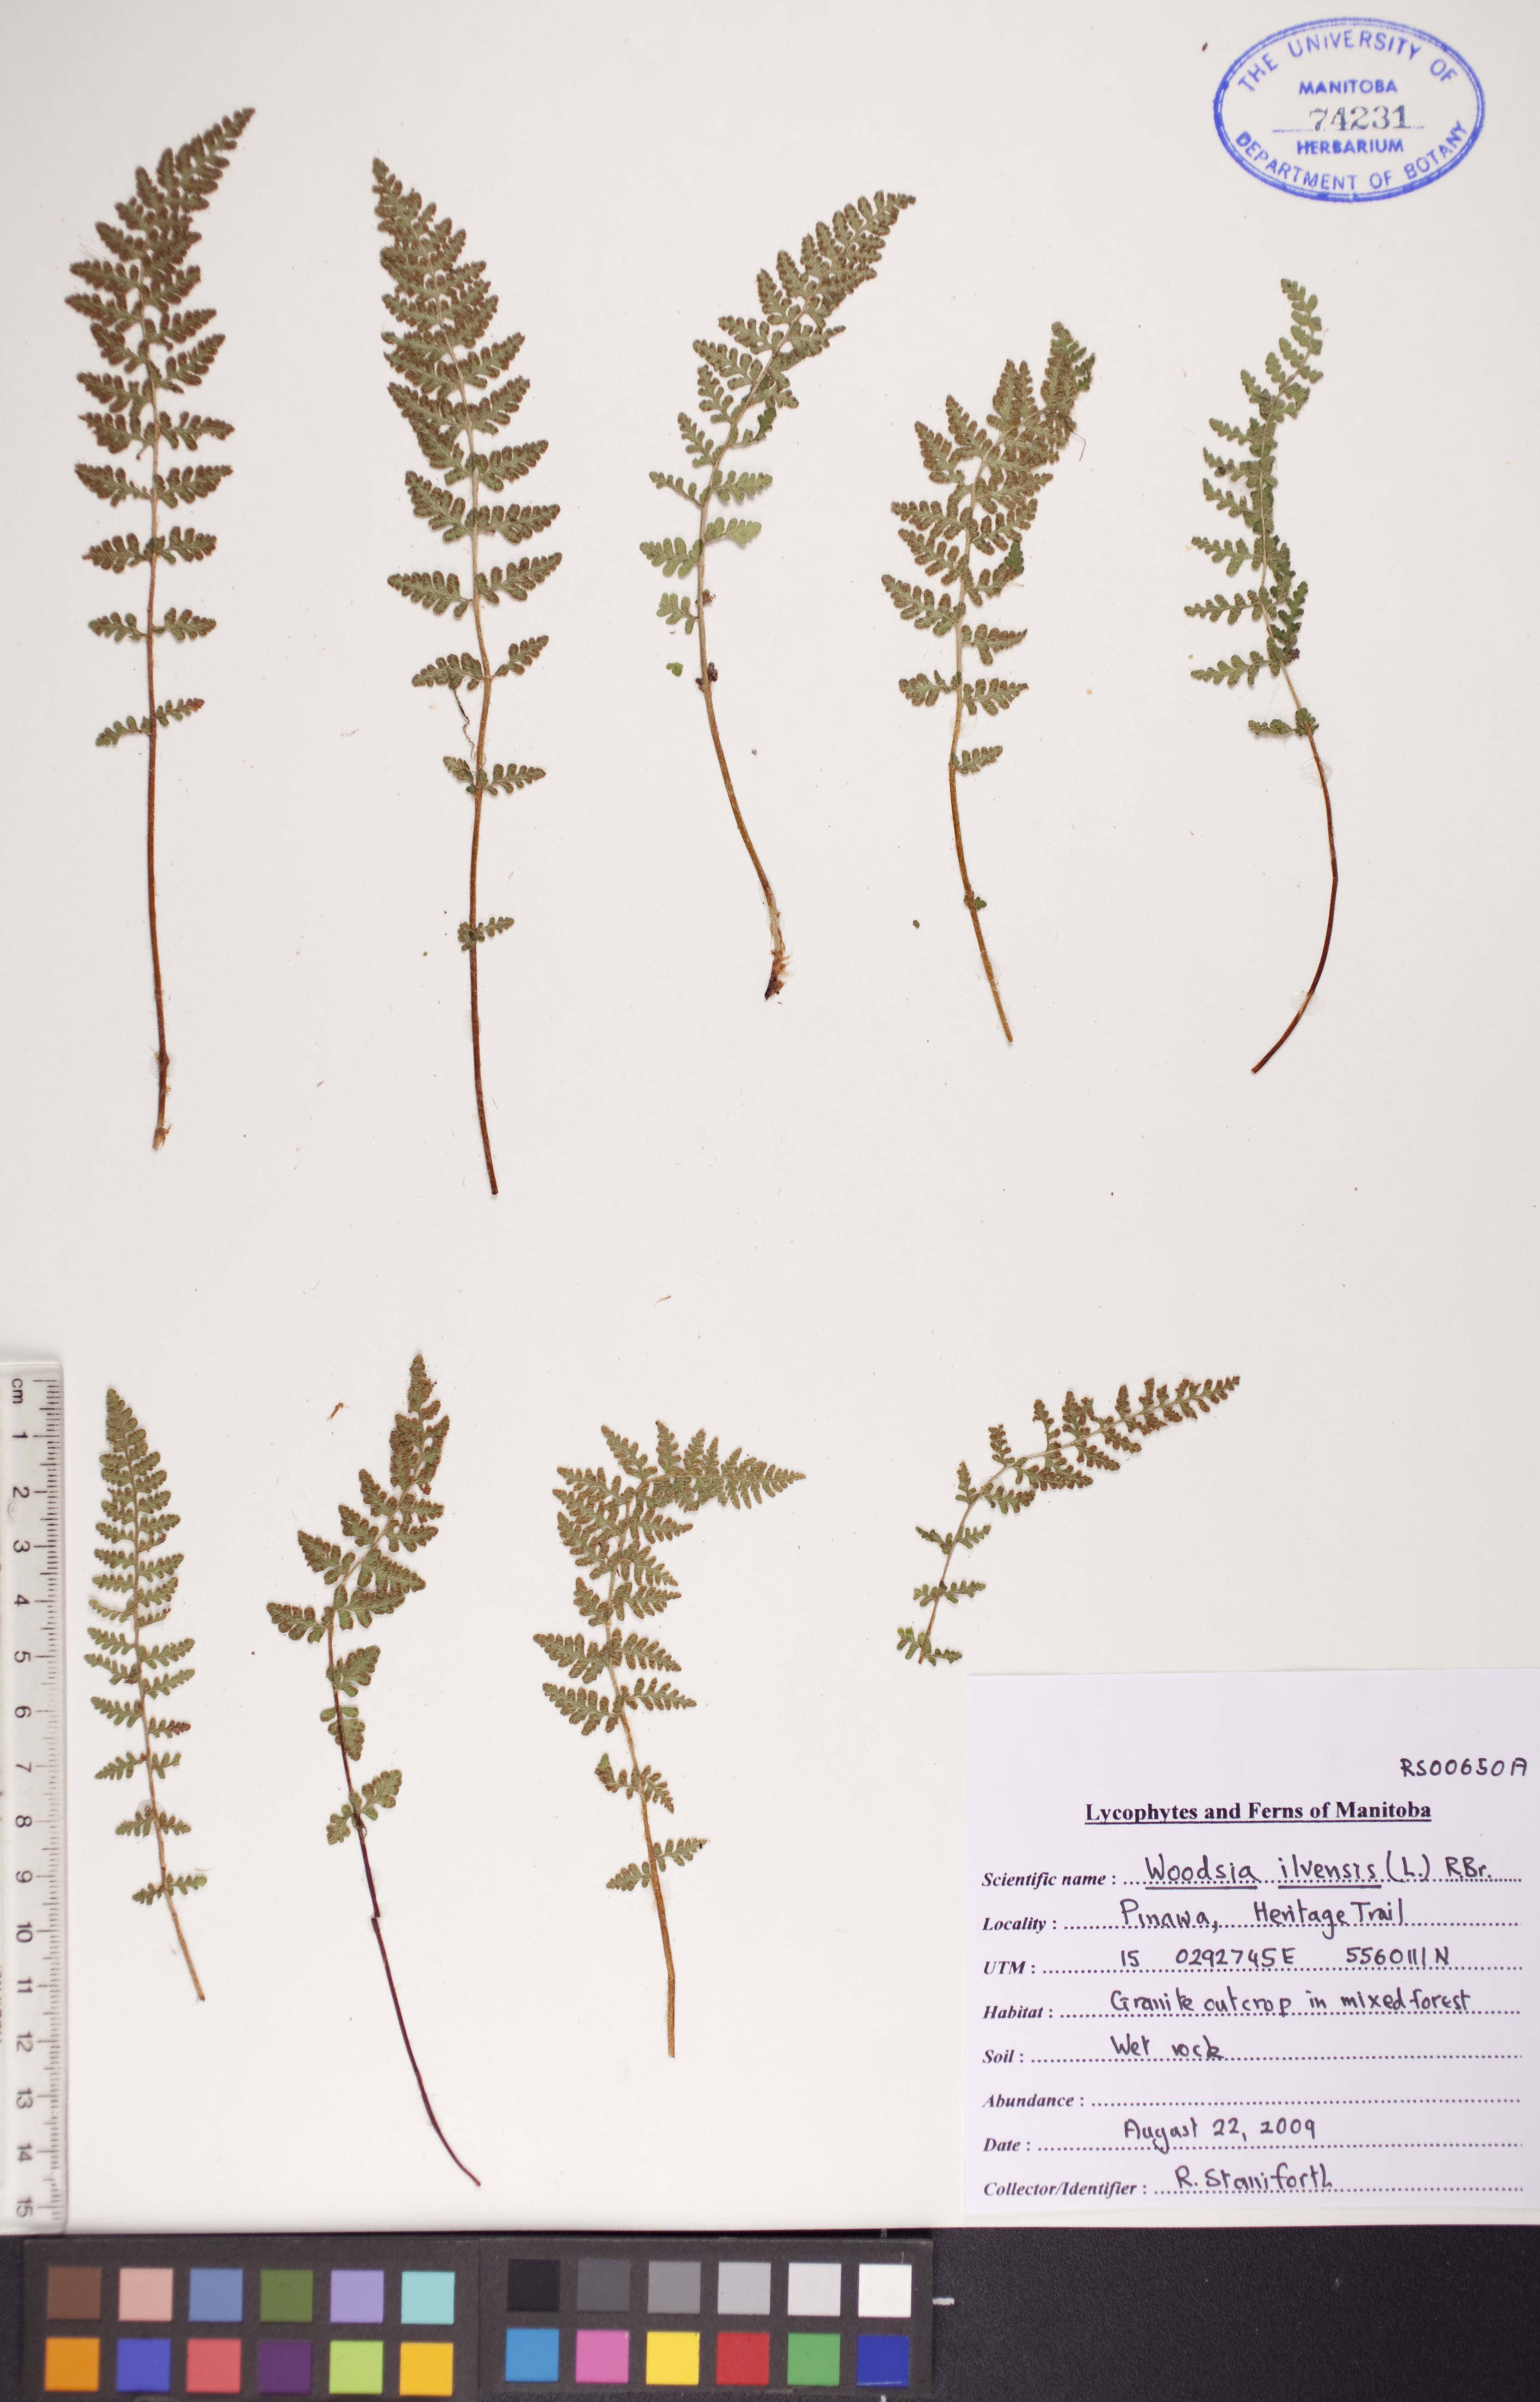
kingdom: Plantae
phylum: Tracheophyta
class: Polypodiopsida
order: Polypodiales
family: Woodsiaceae
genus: Woodsia
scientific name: Woodsia ilvensis
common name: Fragrant woodsia
